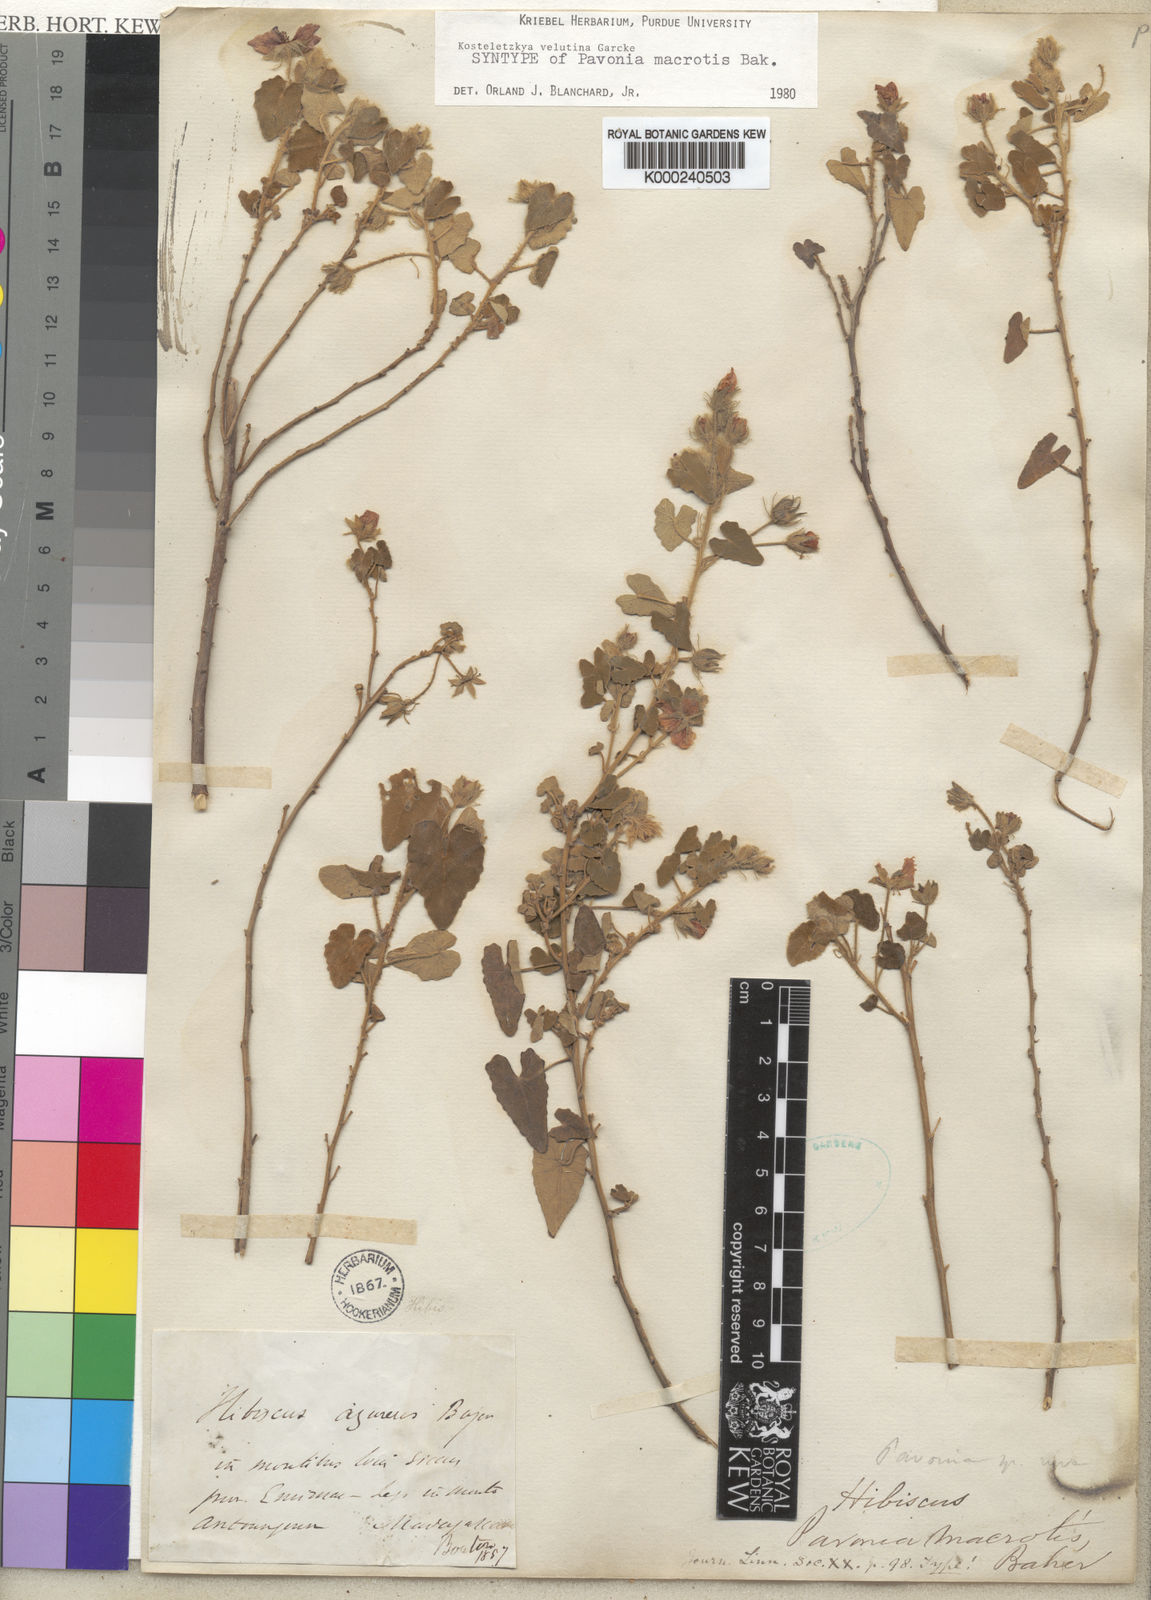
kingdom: Plantae
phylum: Tracheophyta
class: Magnoliopsida
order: Malvales
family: Malvaceae
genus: Perrierophytum
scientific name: Perrierophytum velutinum
